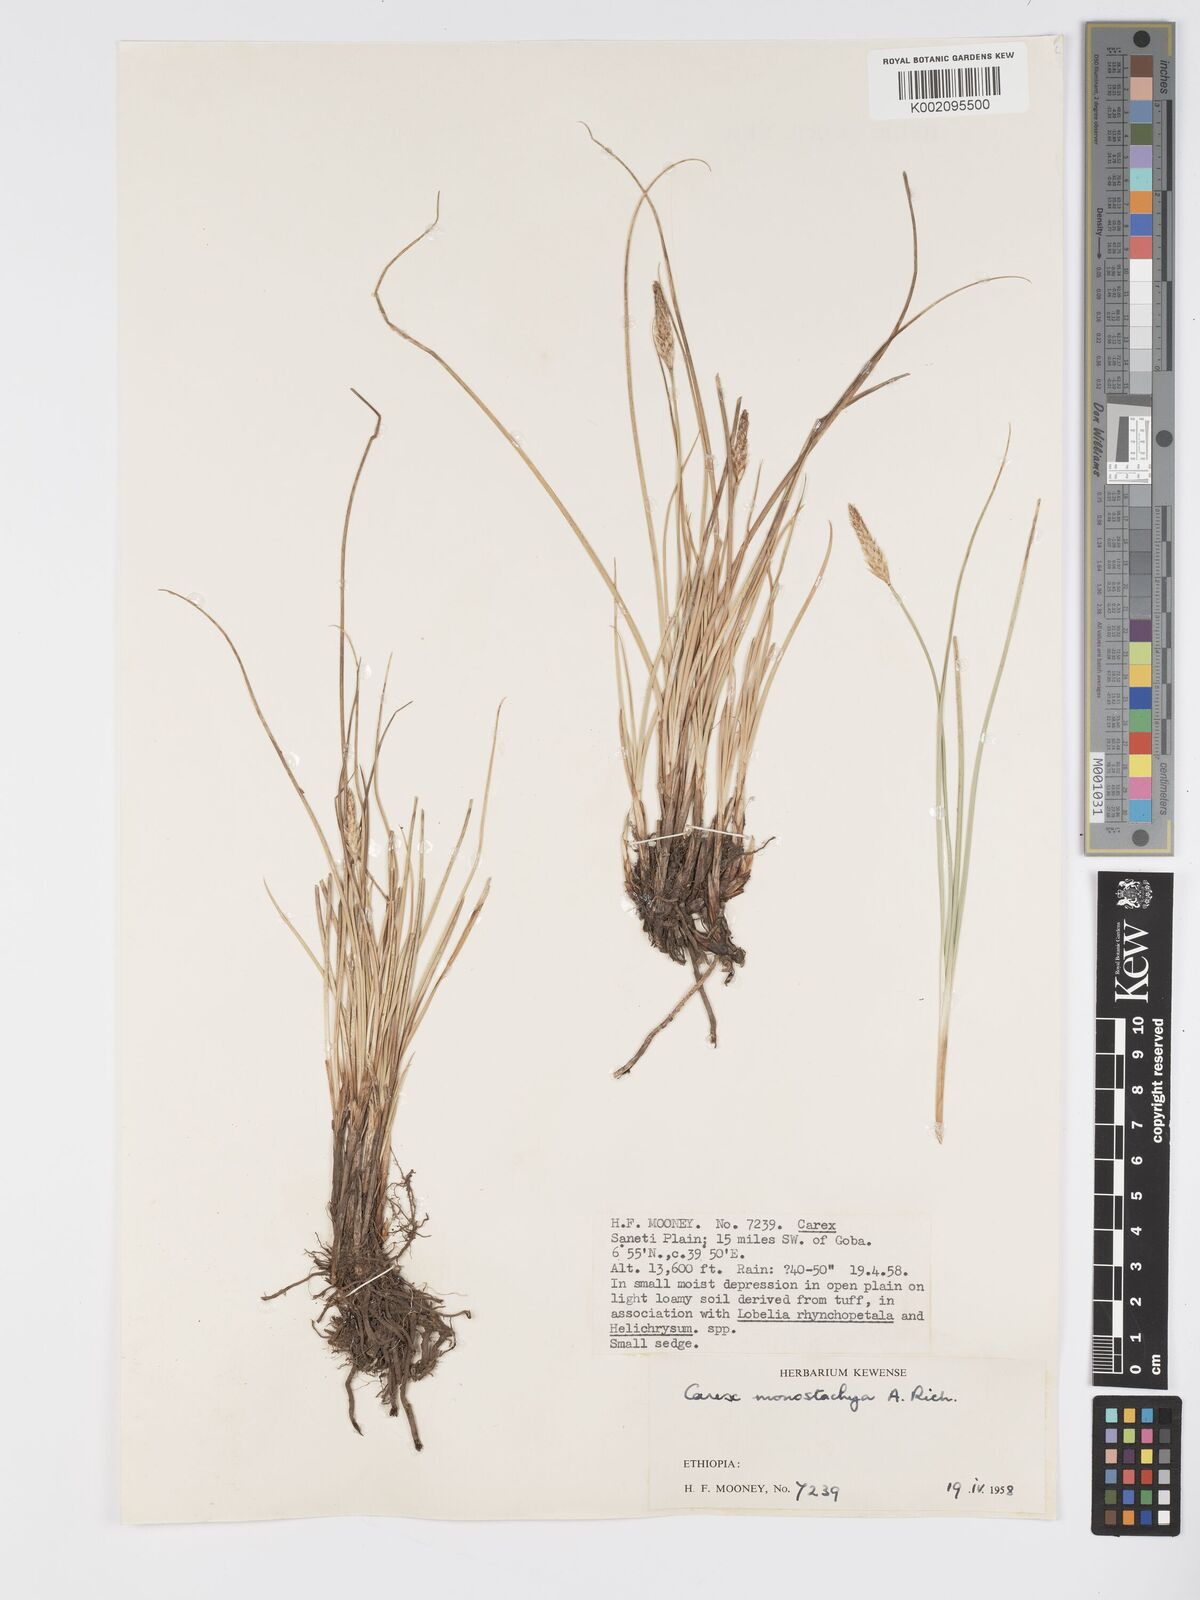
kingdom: Plantae
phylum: Tracheophyta
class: Liliopsida
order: Poales
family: Cyperaceae
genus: Carex
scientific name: Carex monostachya
